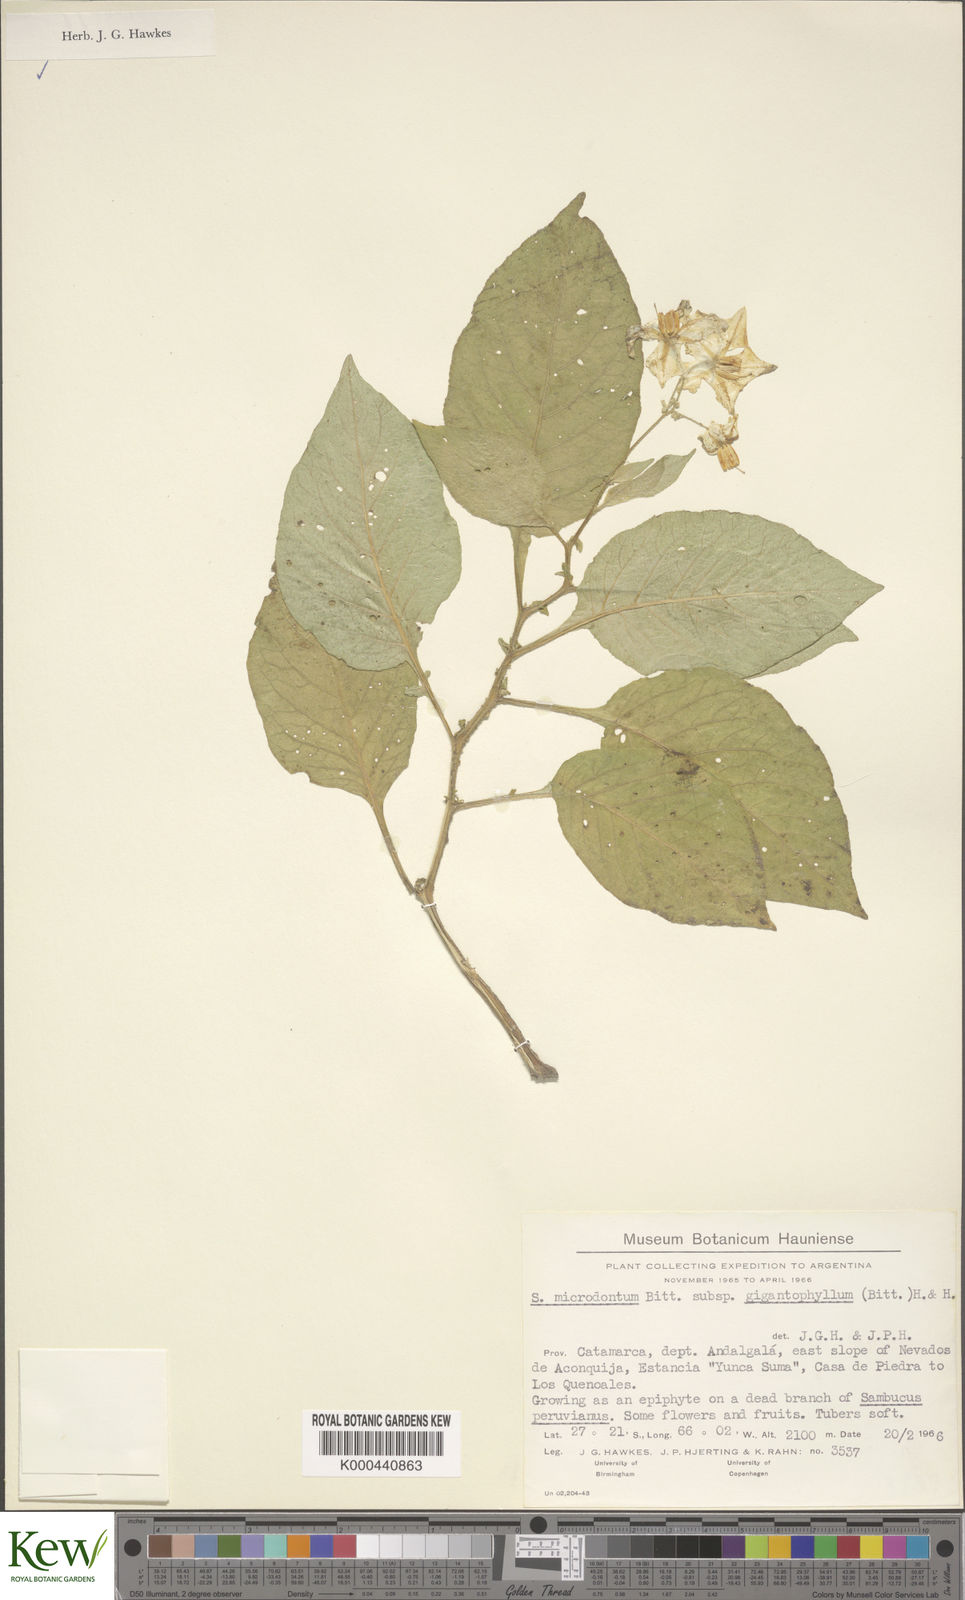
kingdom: Plantae
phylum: Tracheophyta
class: Magnoliopsida
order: Solanales
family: Solanaceae
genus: Solanum
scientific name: Solanum microdontum
